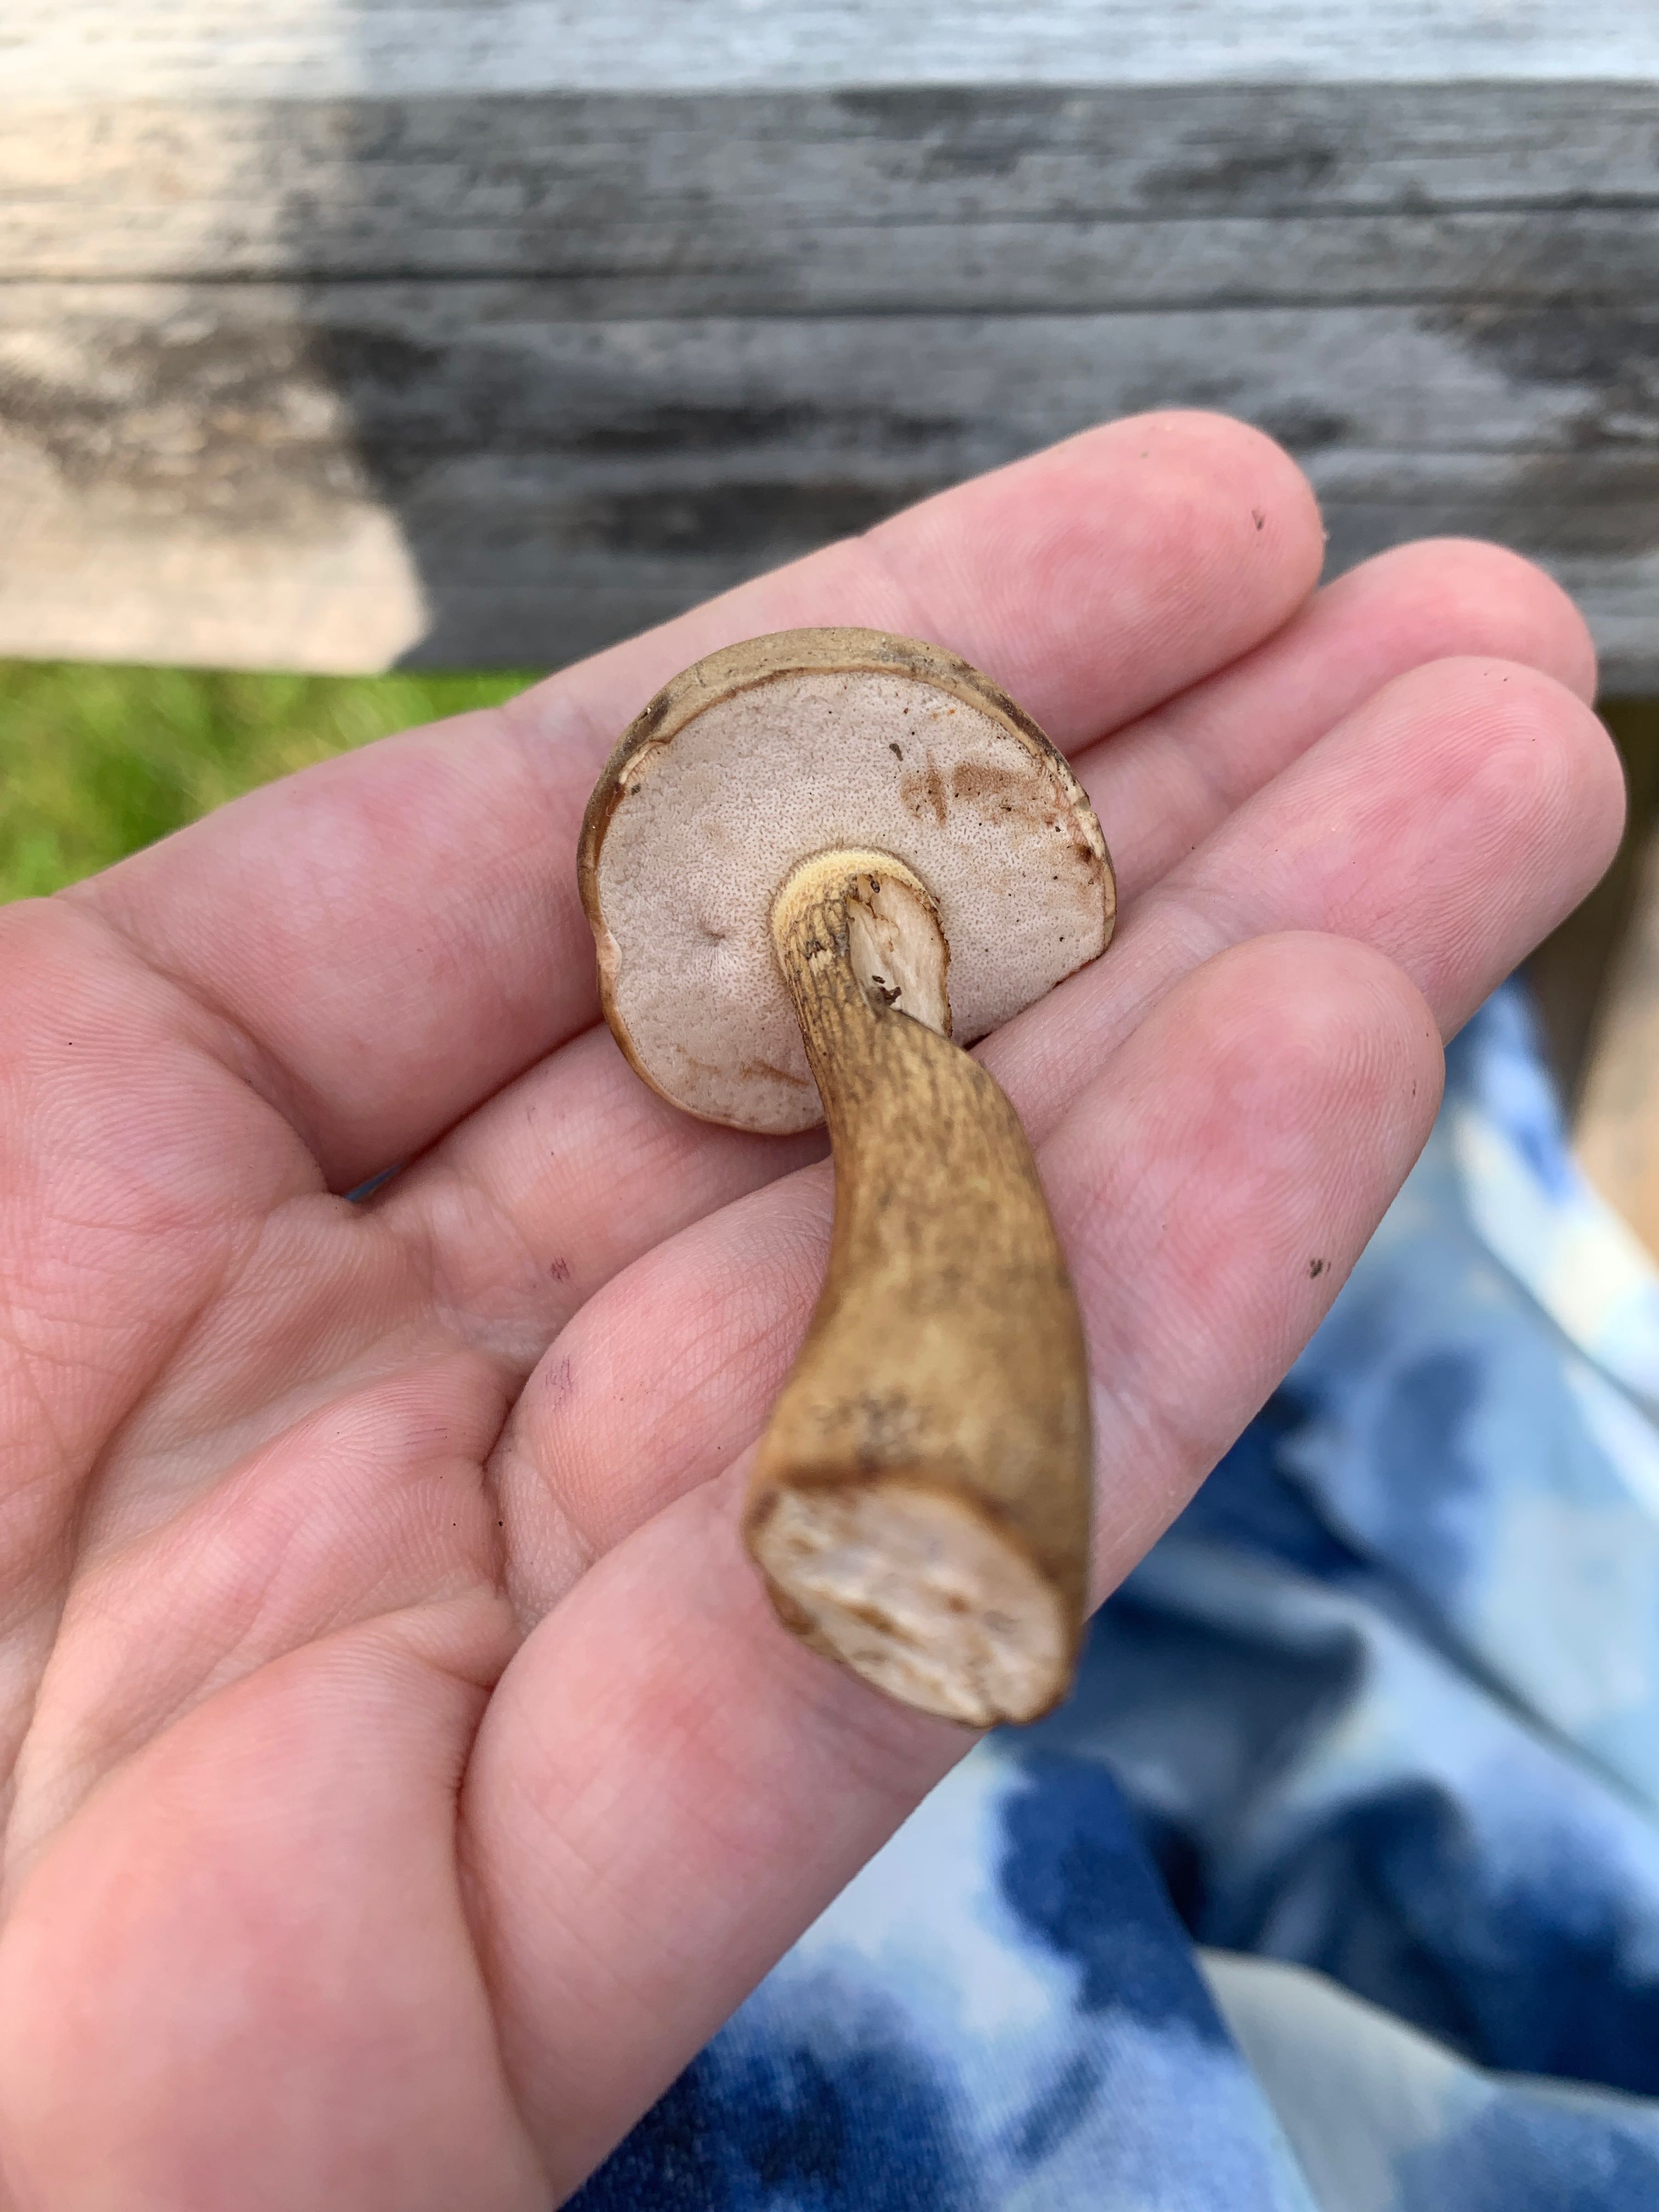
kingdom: Fungi
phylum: Basidiomycota
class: Agaricomycetes
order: Boletales
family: Boletaceae
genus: Tylopilus
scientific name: Tylopilus felleus
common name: galderørhat
